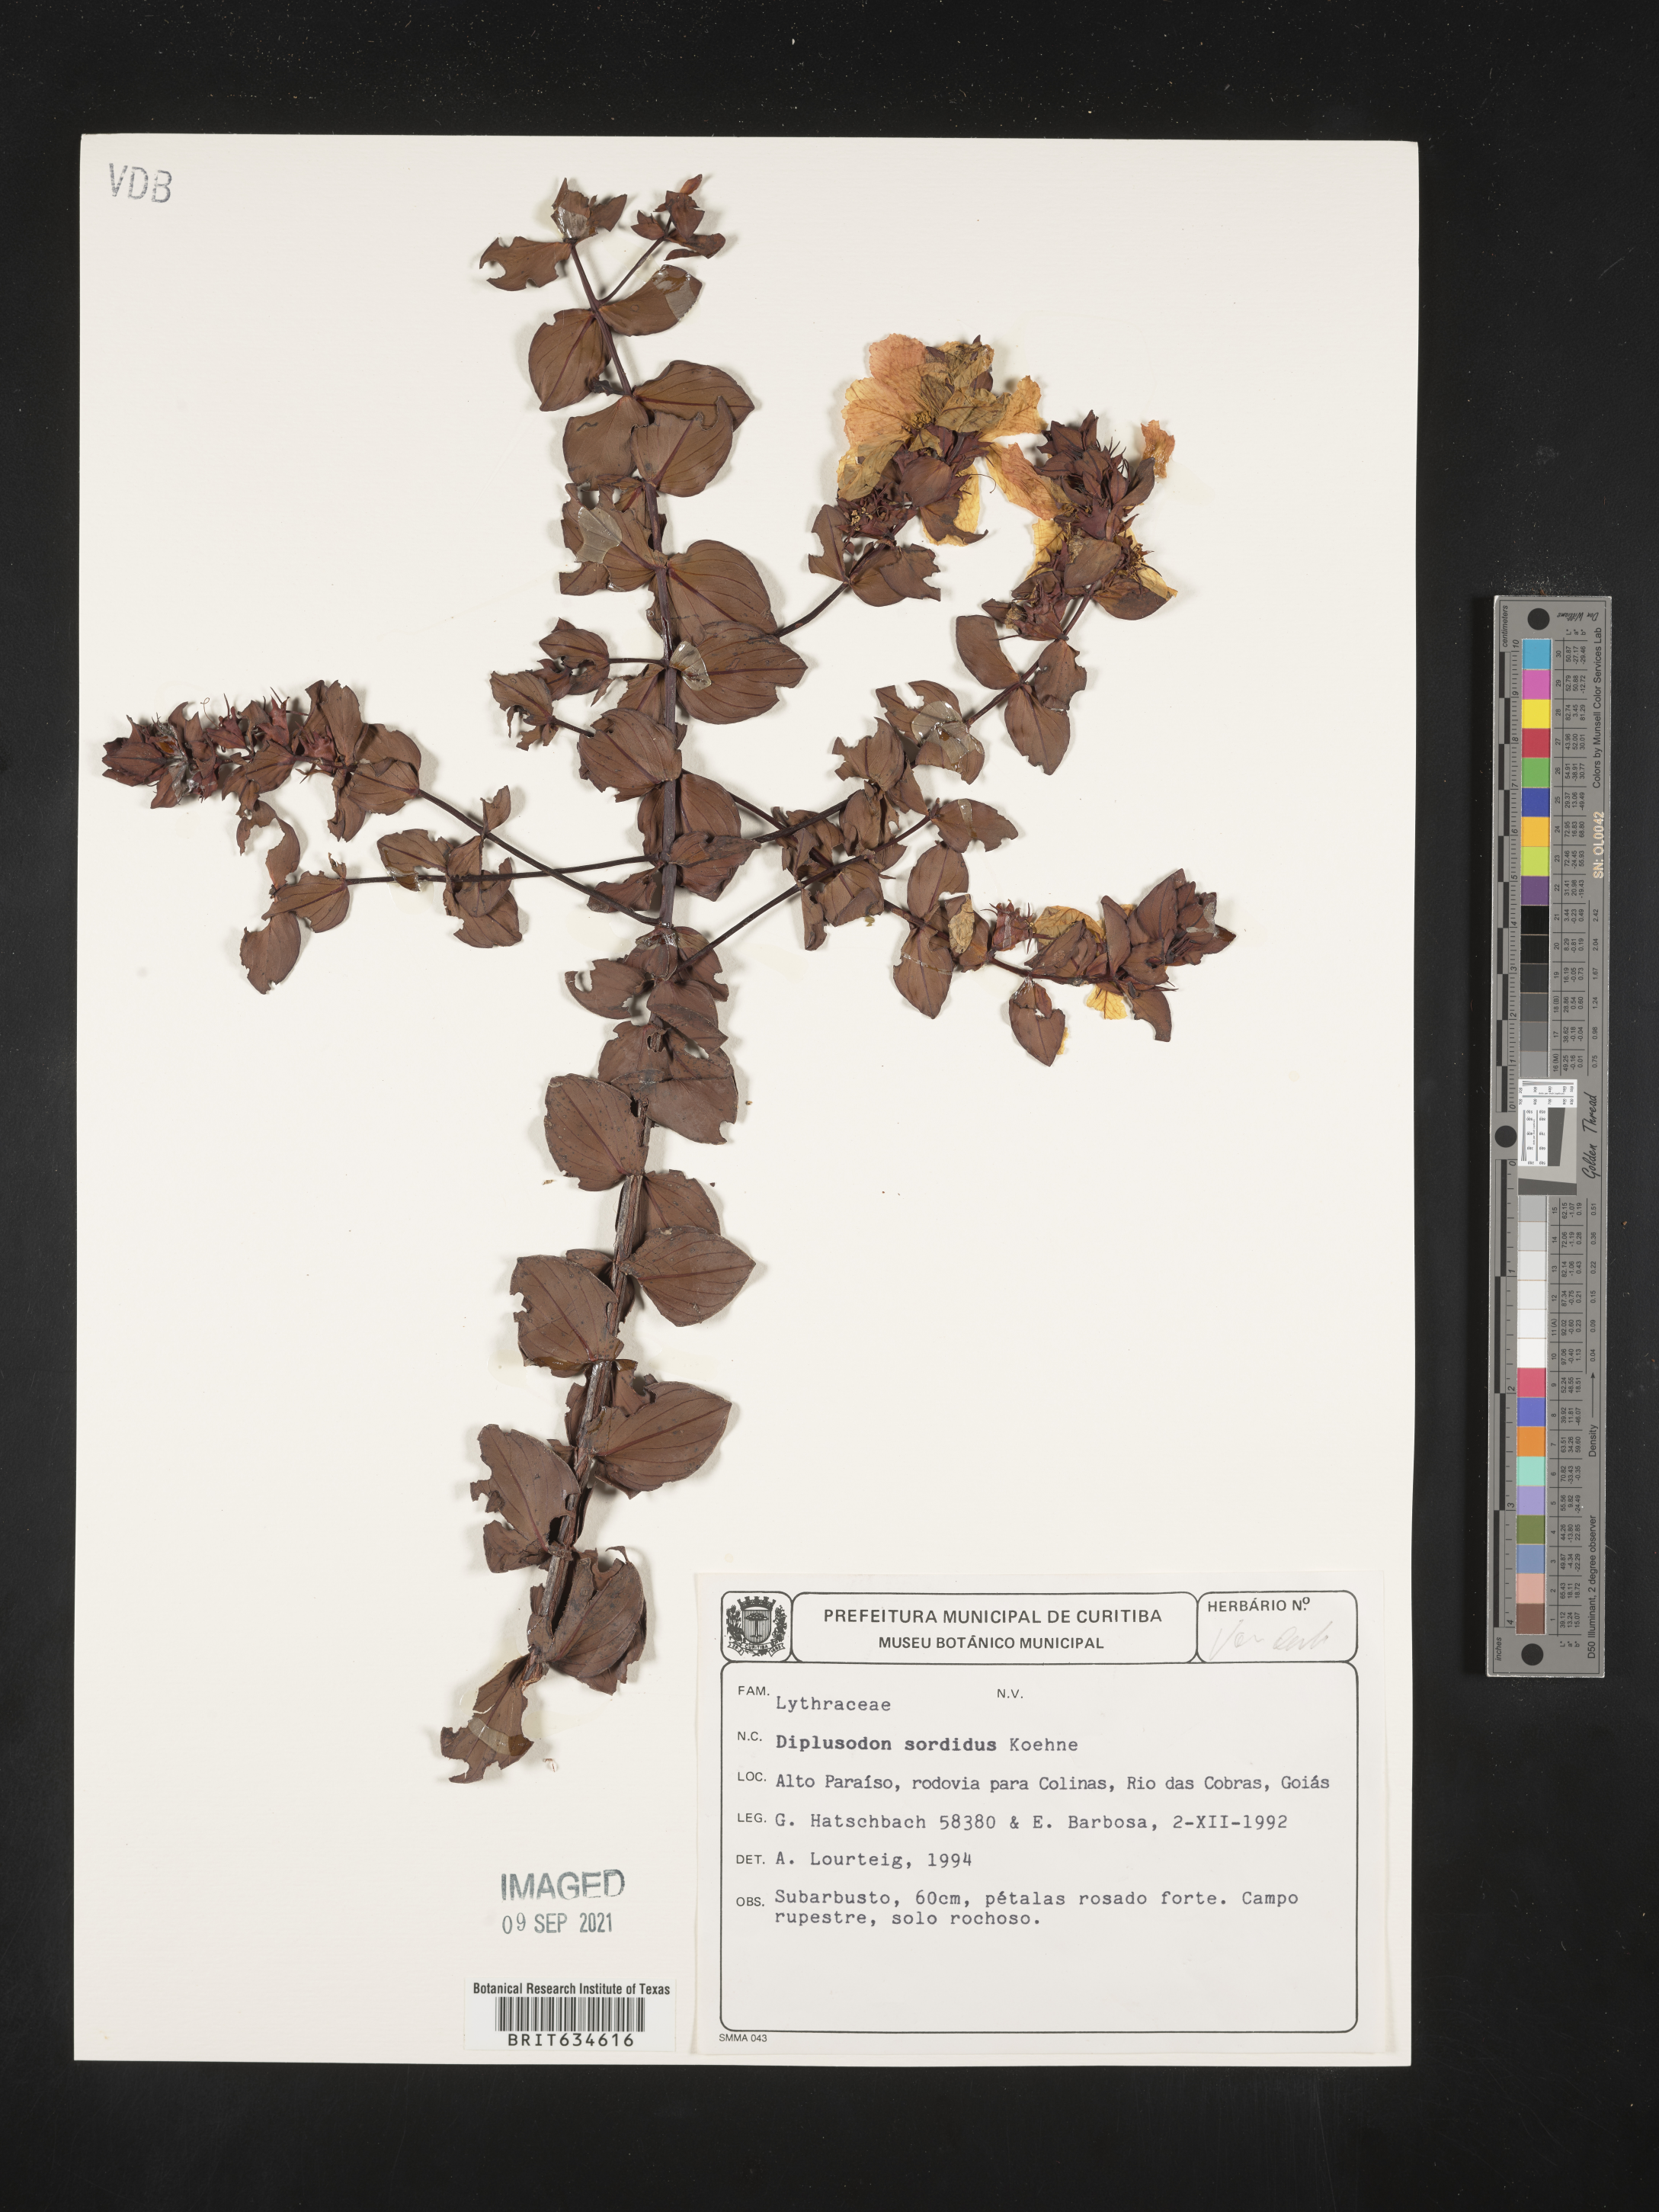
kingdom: Plantae
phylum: Tracheophyta
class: Magnoliopsida
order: Myrtales
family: Lythraceae
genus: Diplusodon
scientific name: Diplusodon
